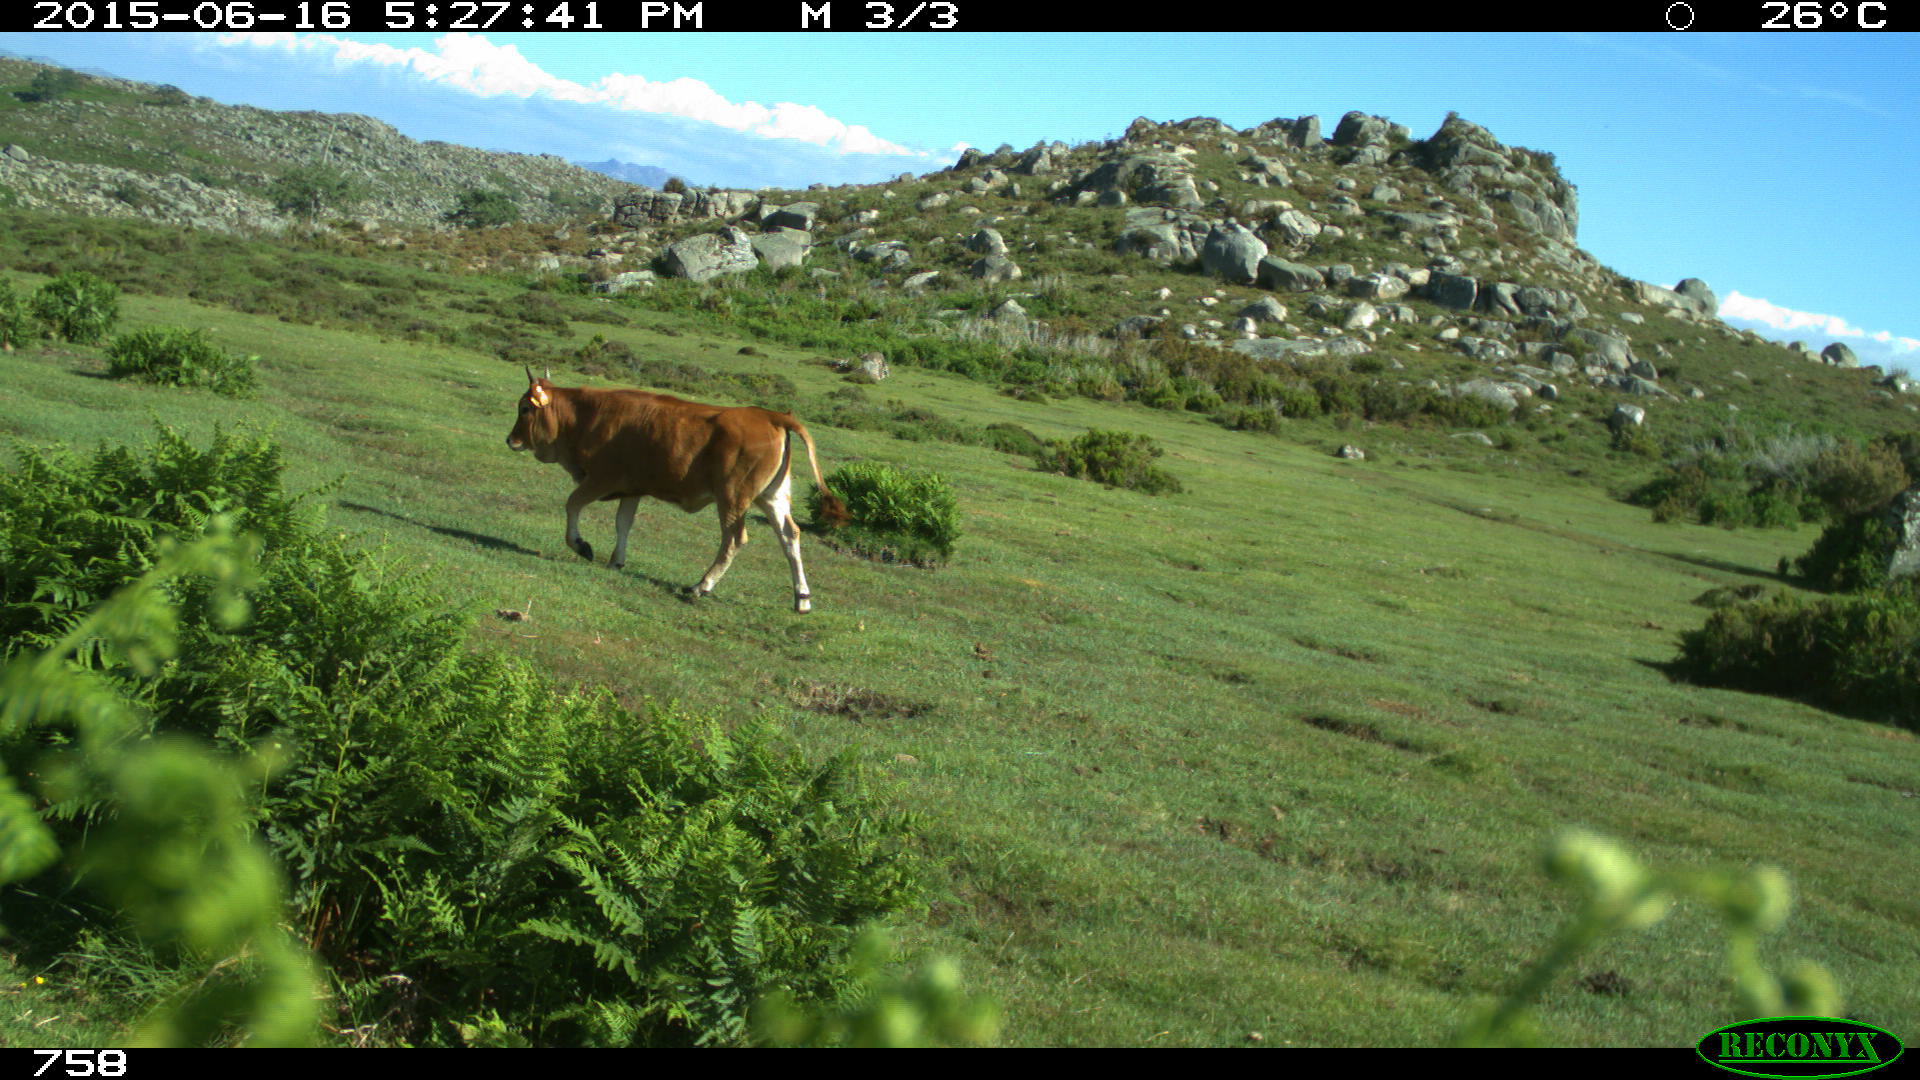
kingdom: Animalia
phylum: Chordata
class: Mammalia
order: Artiodactyla
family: Bovidae
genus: Bos
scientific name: Bos taurus
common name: Domesticated cattle
